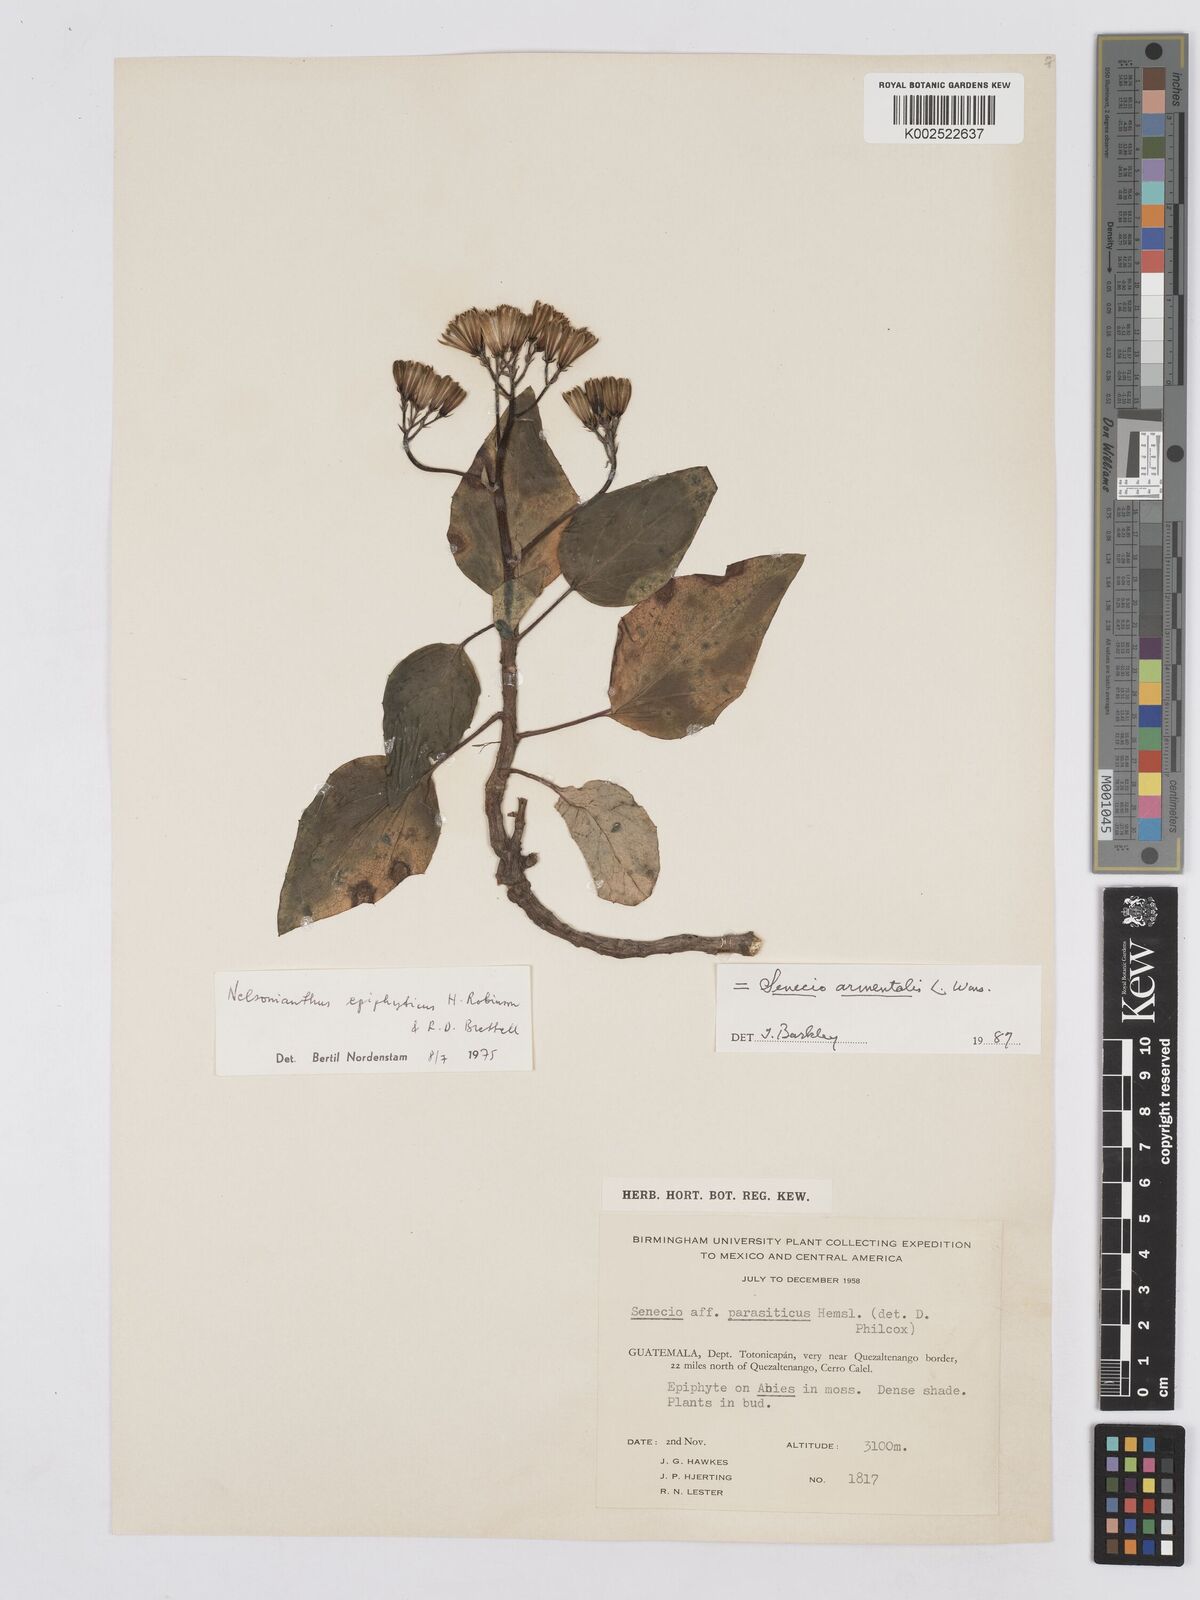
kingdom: Plantae
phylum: Tracheophyta
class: Magnoliopsida
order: Asterales
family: Asteraceae
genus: Nelsonianthus
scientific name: Nelsonianthus epiphyticus
